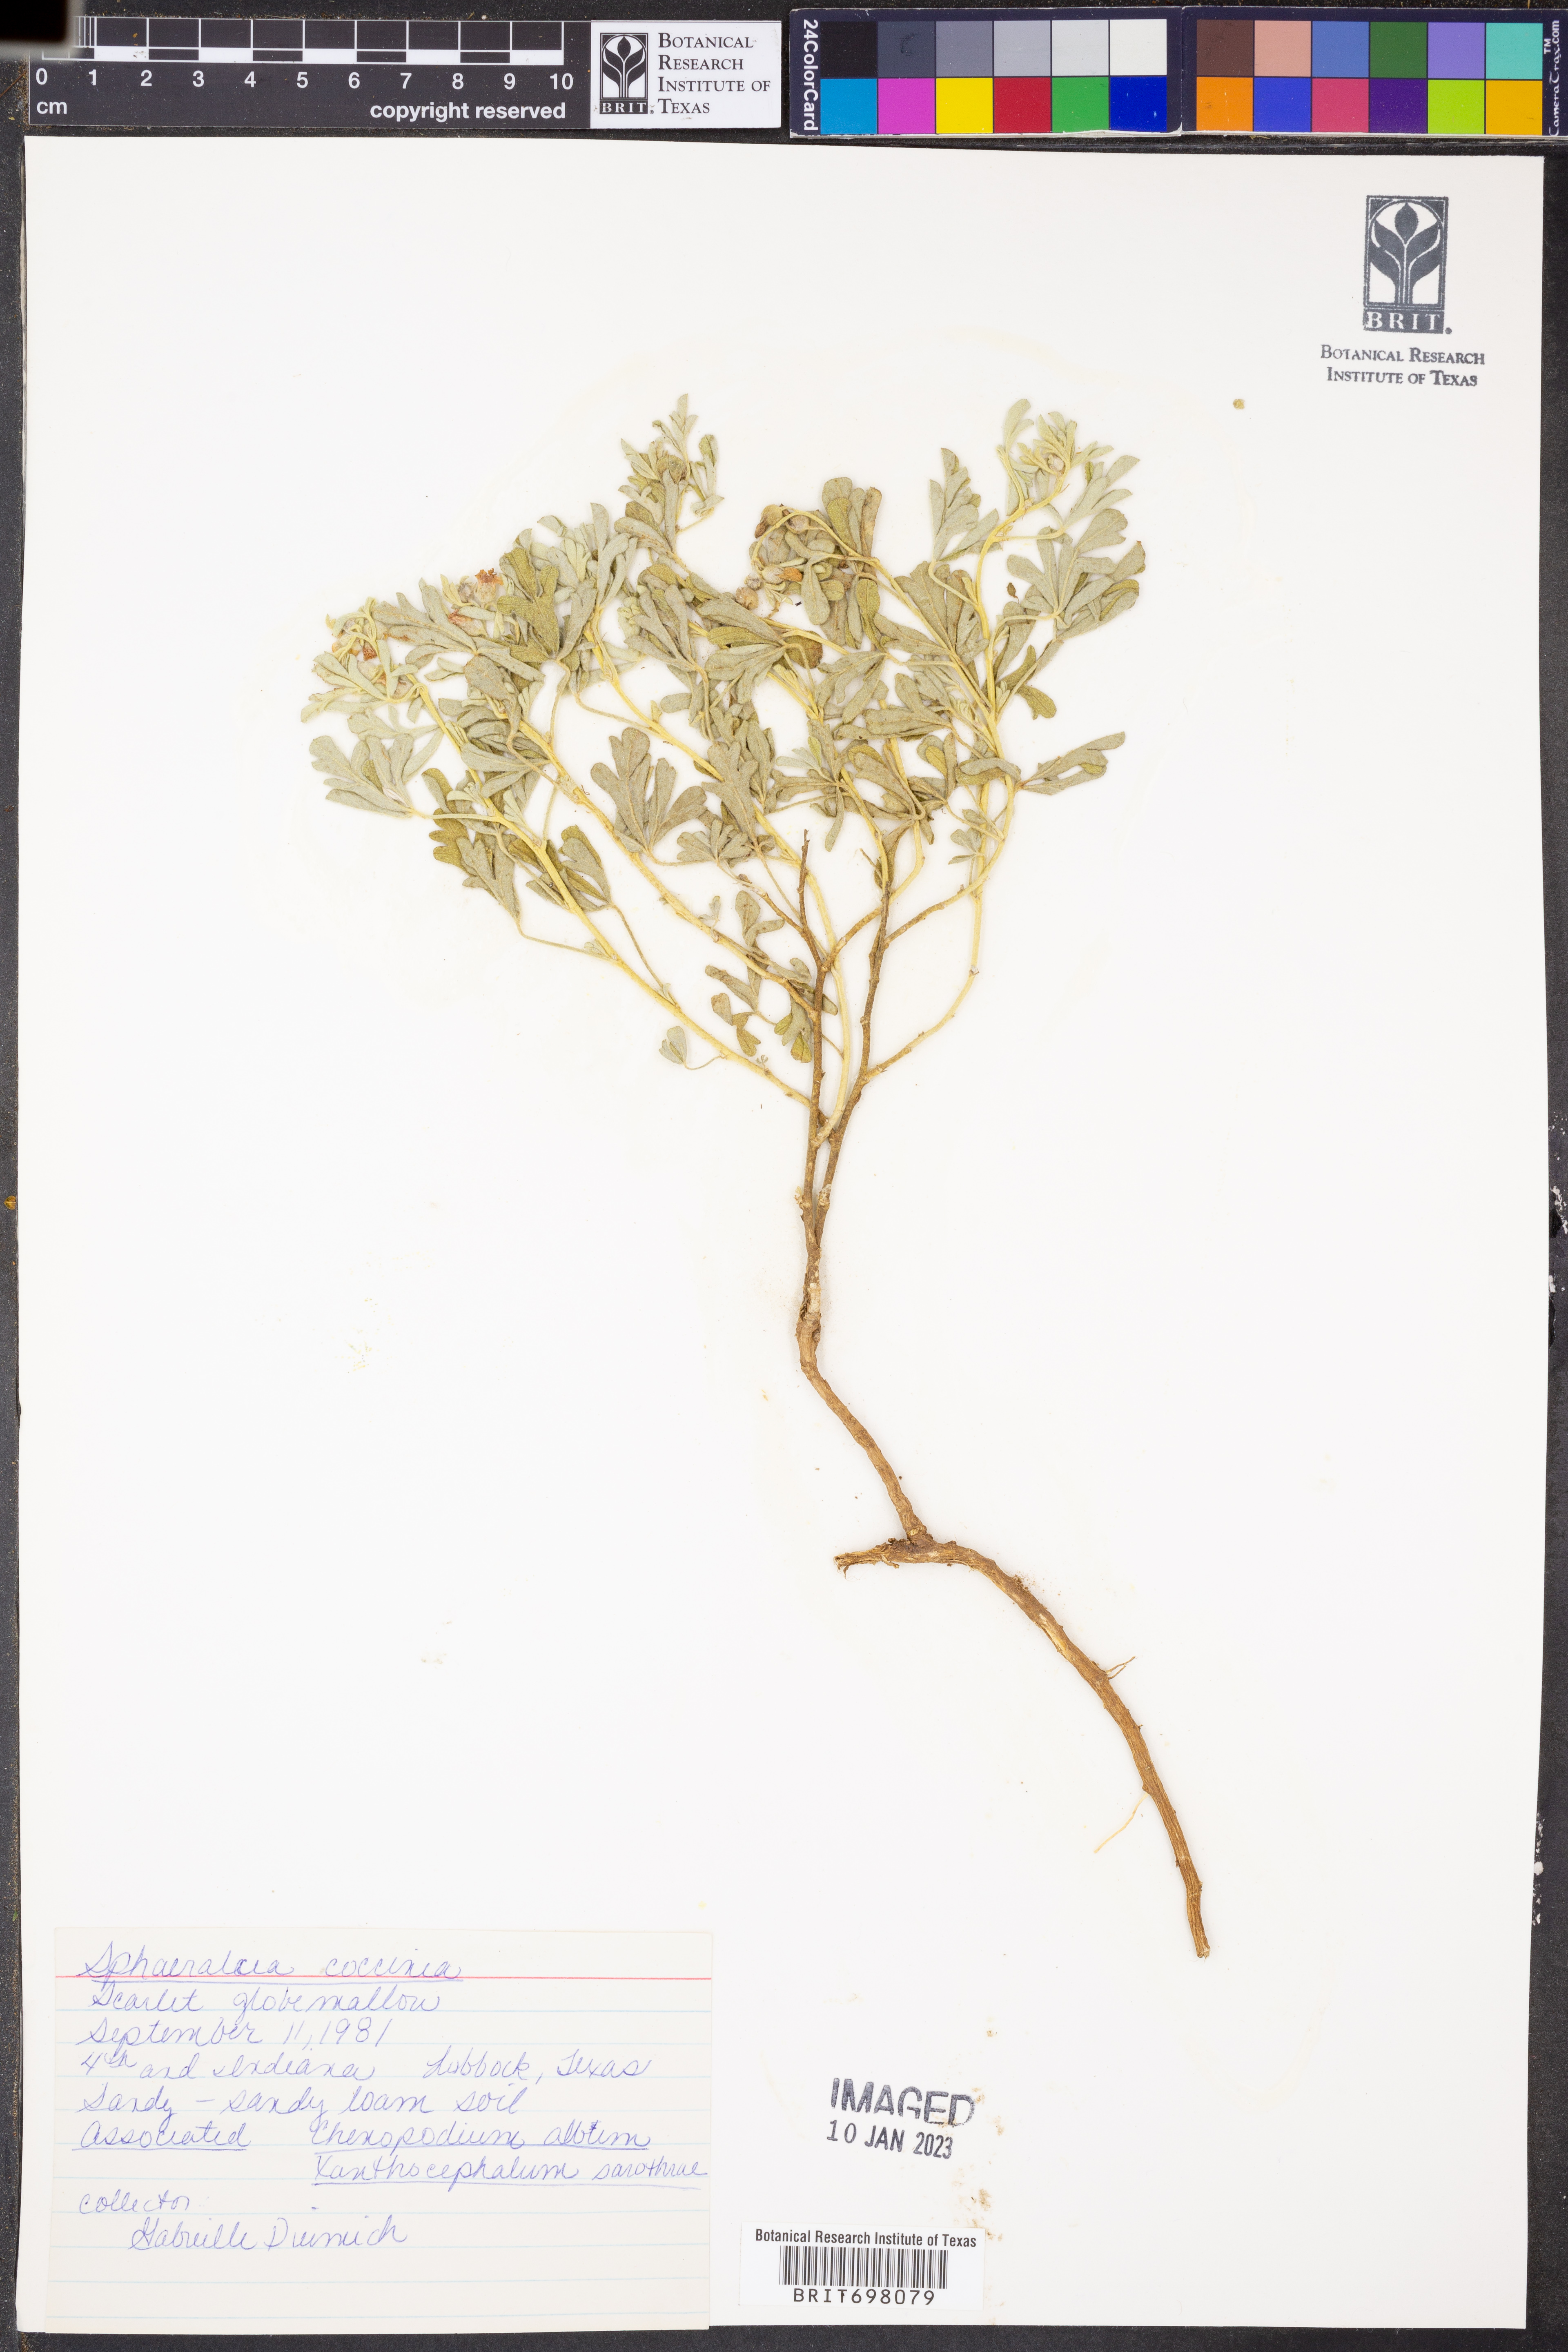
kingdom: Plantae
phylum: Tracheophyta
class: Magnoliopsida
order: Malvales
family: Malvaceae
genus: Sphaeralcea
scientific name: Sphaeralcea coccinea
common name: Moss-rose
